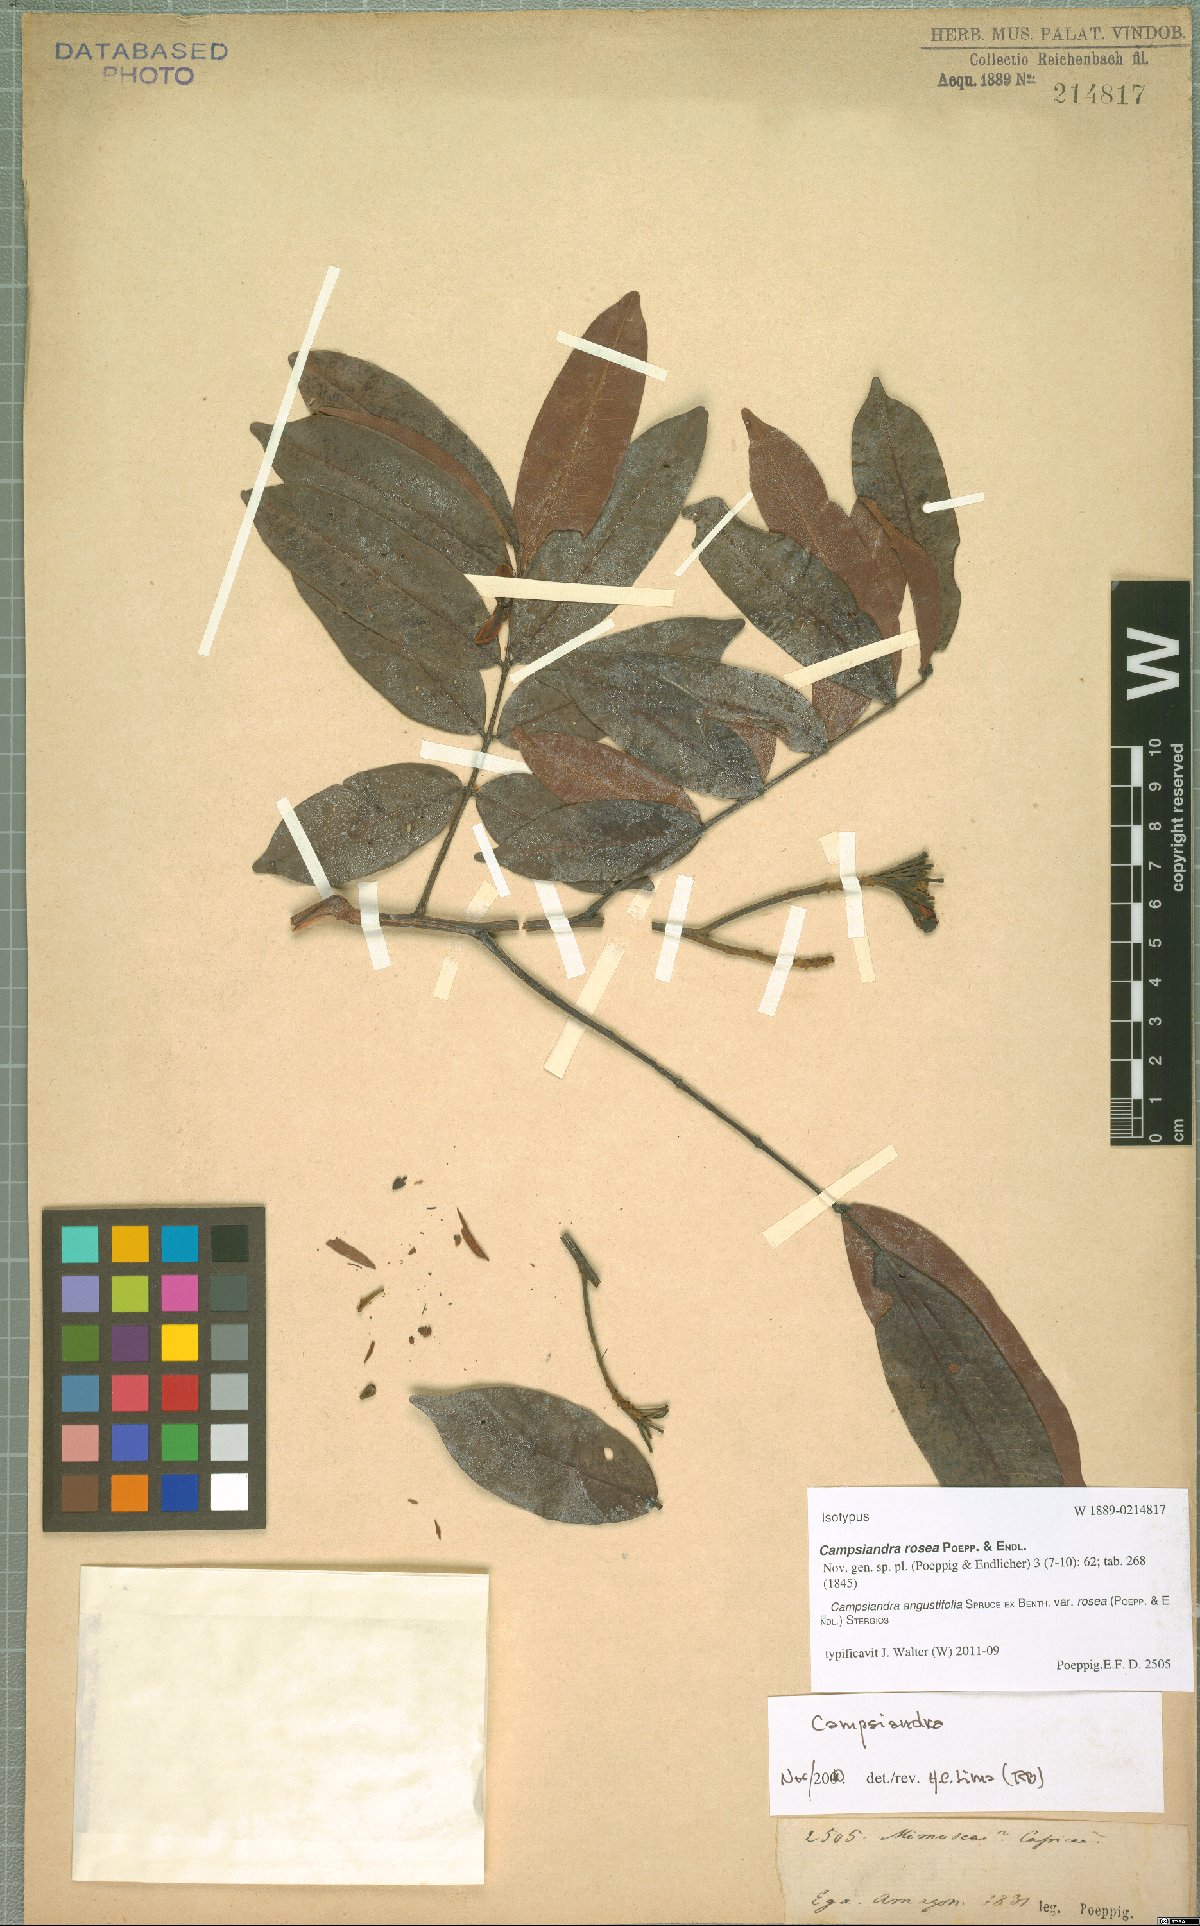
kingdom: Plantae
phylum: Tracheophyta
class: Magnoliopsida
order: Fabales
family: Fabaceae
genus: Campsiandra
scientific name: Campsiandra angustifolia
